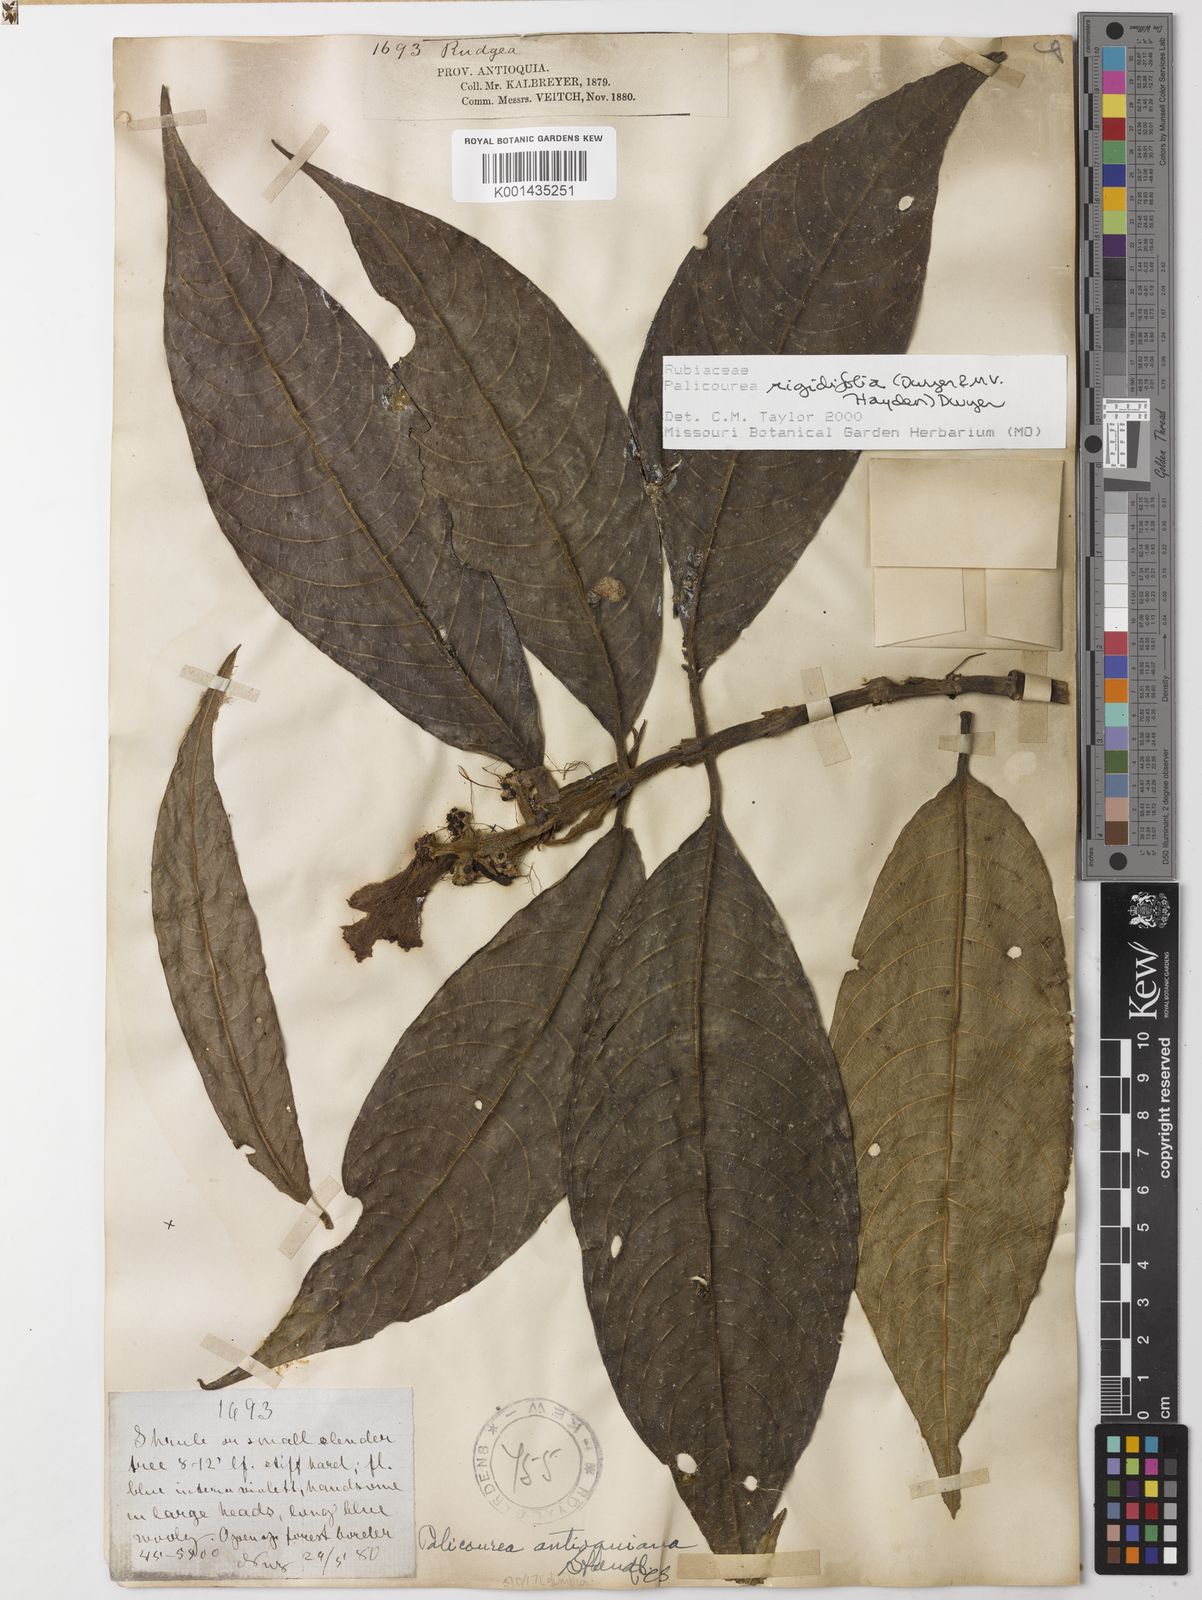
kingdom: Plantae
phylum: Tracheophyta
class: Magnoliopsida
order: Gentianales
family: Rubiaceae
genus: Palicourea
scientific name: Palicourea rigidifolia
